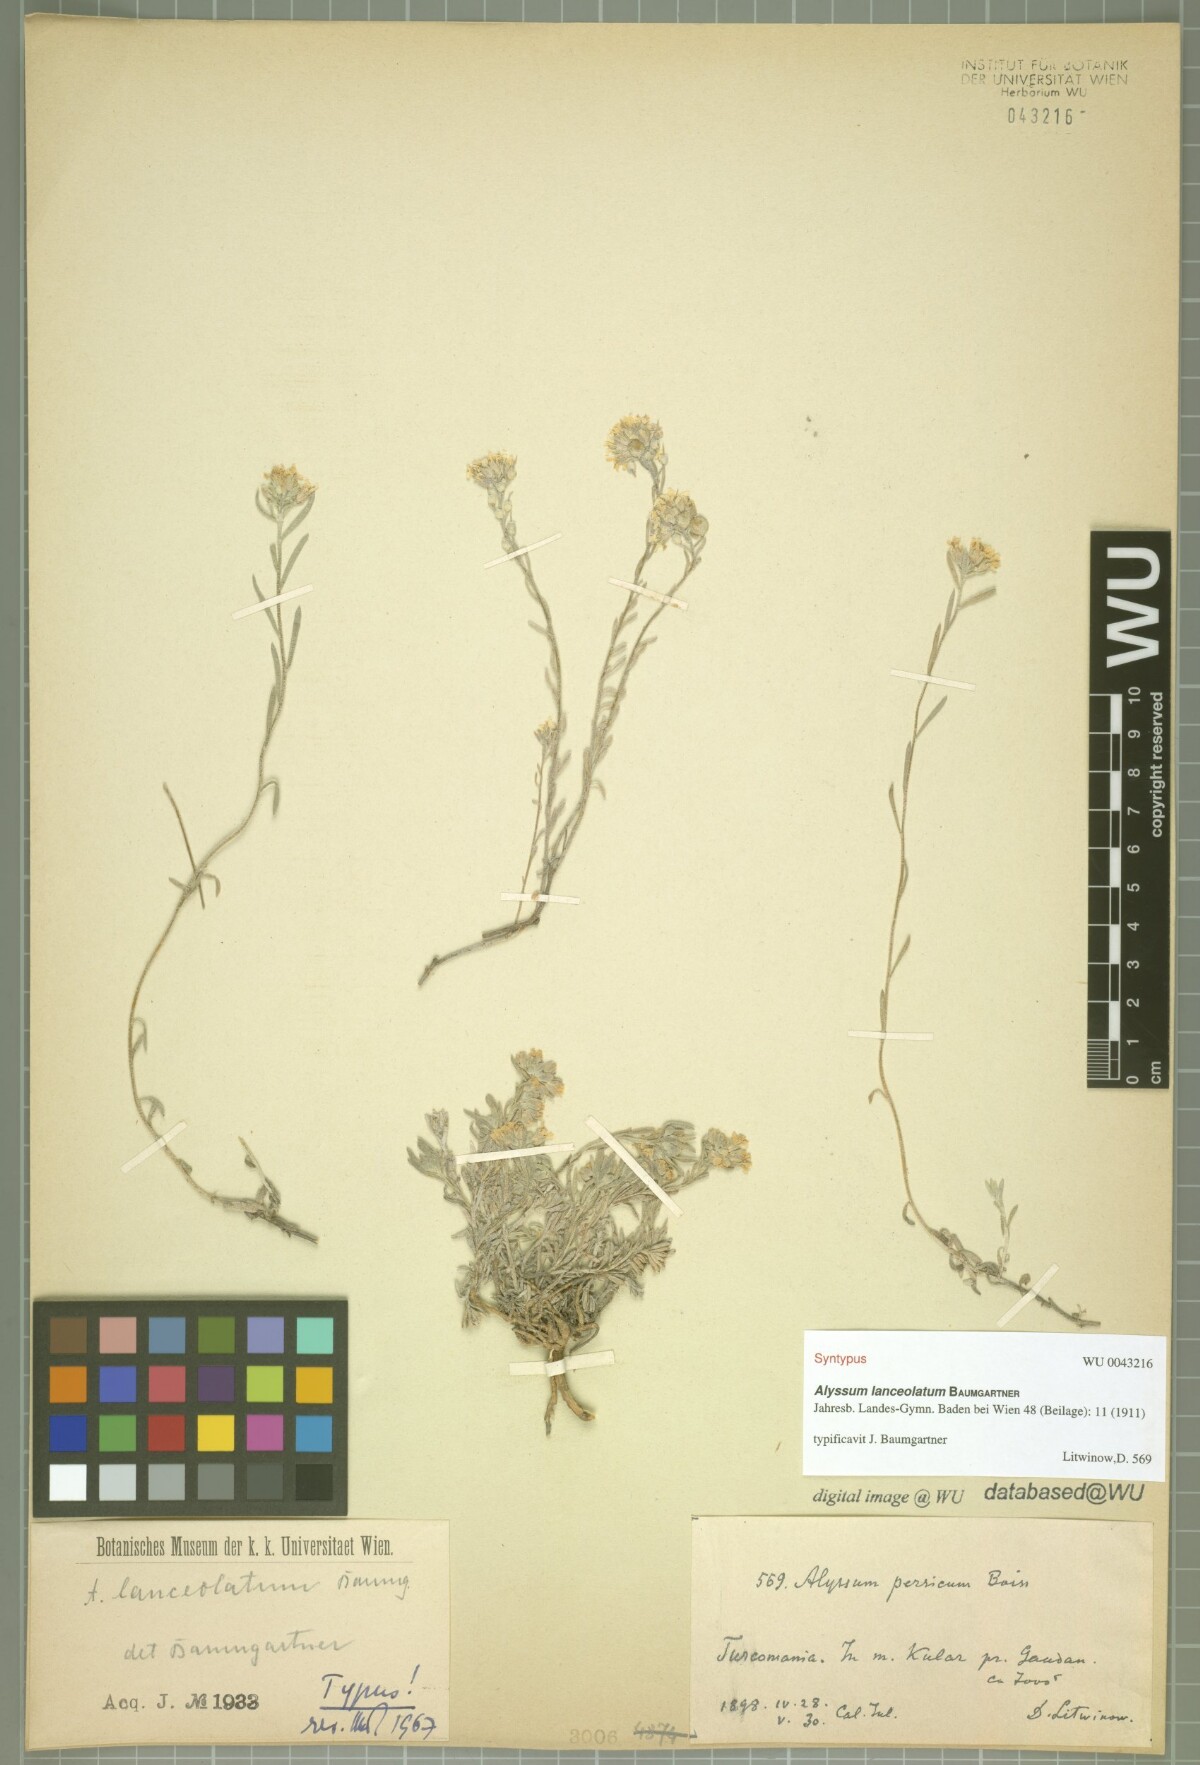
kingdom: Plantae
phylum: Tracheophyta
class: Magnoliopsida
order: Brassicales
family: Brassicaceae
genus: Alyssum
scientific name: Alyssum lanceolatum
